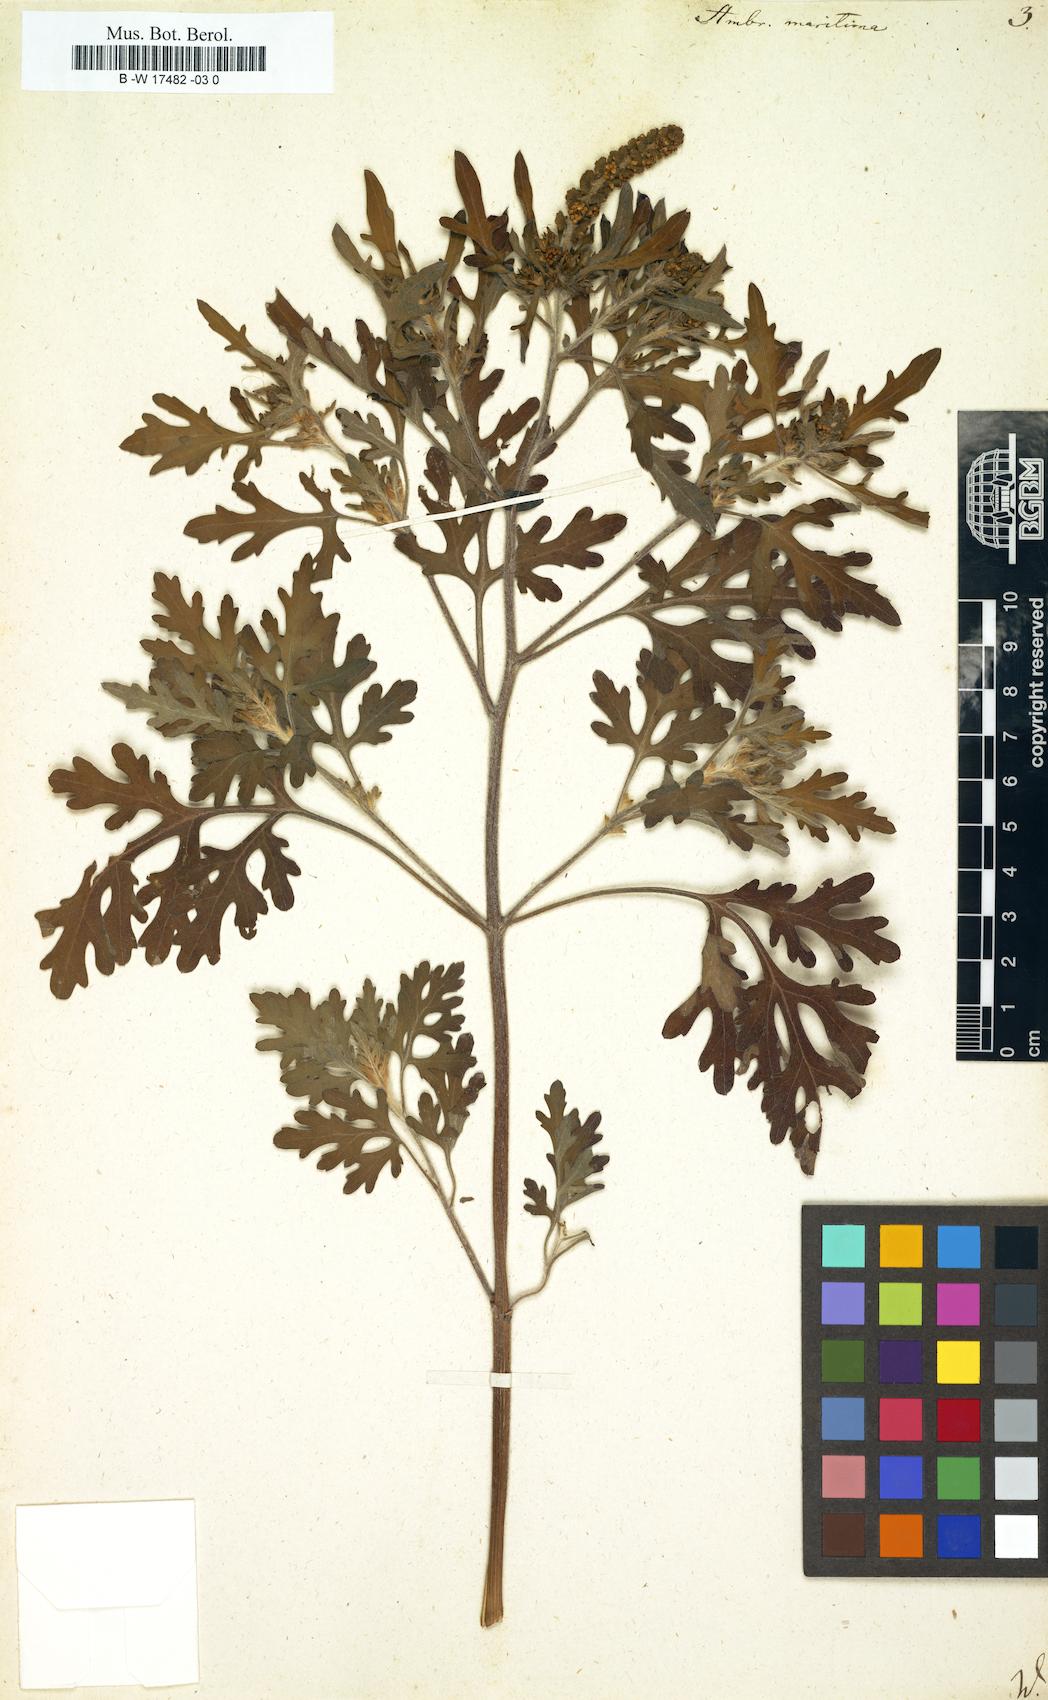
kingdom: Plantae
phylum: Tracheophyta
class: Magnoliopsida
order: Asterales
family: Asteraceae
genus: Ambrosia
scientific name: Ambrosia maritima
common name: Sea ambrosia
